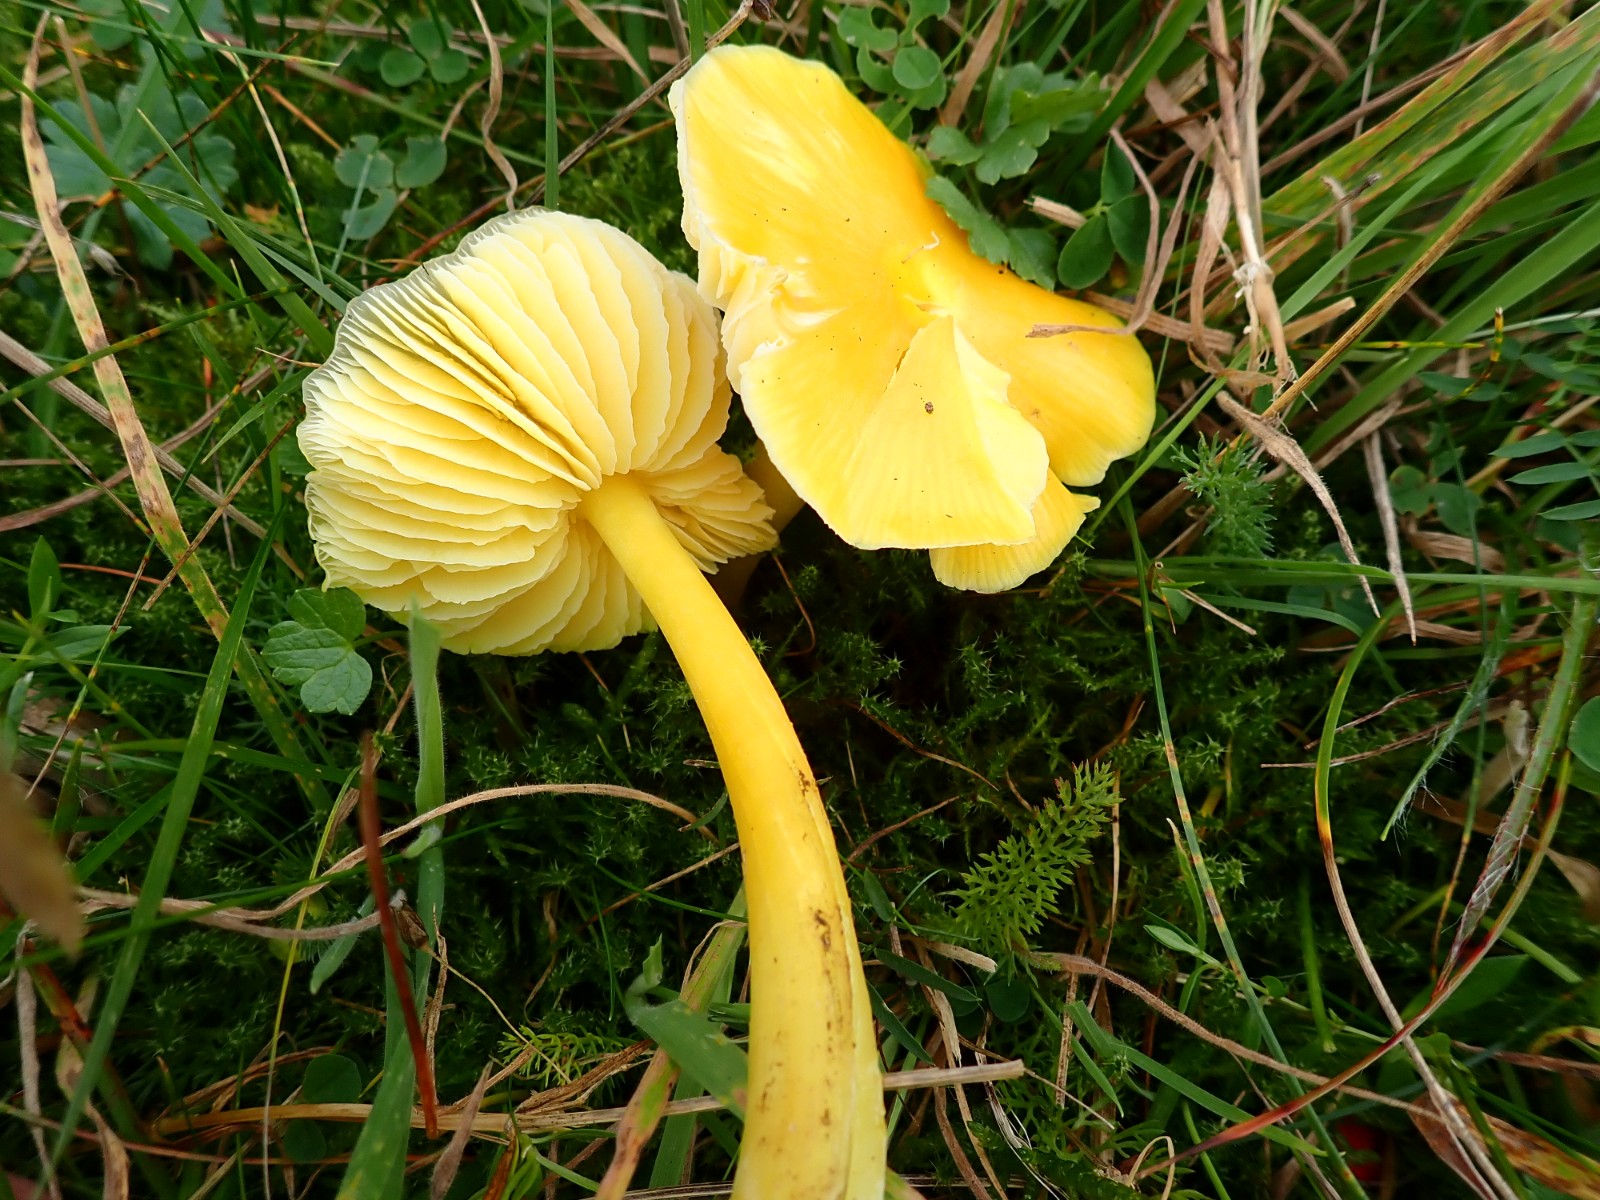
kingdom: Fungi
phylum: Basidiomycota
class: Agaricomycetes
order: Agaricales
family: Hygrophoraceae
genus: Hygrocybe
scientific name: Hygrocybe chlorophana
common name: gul vokshat
